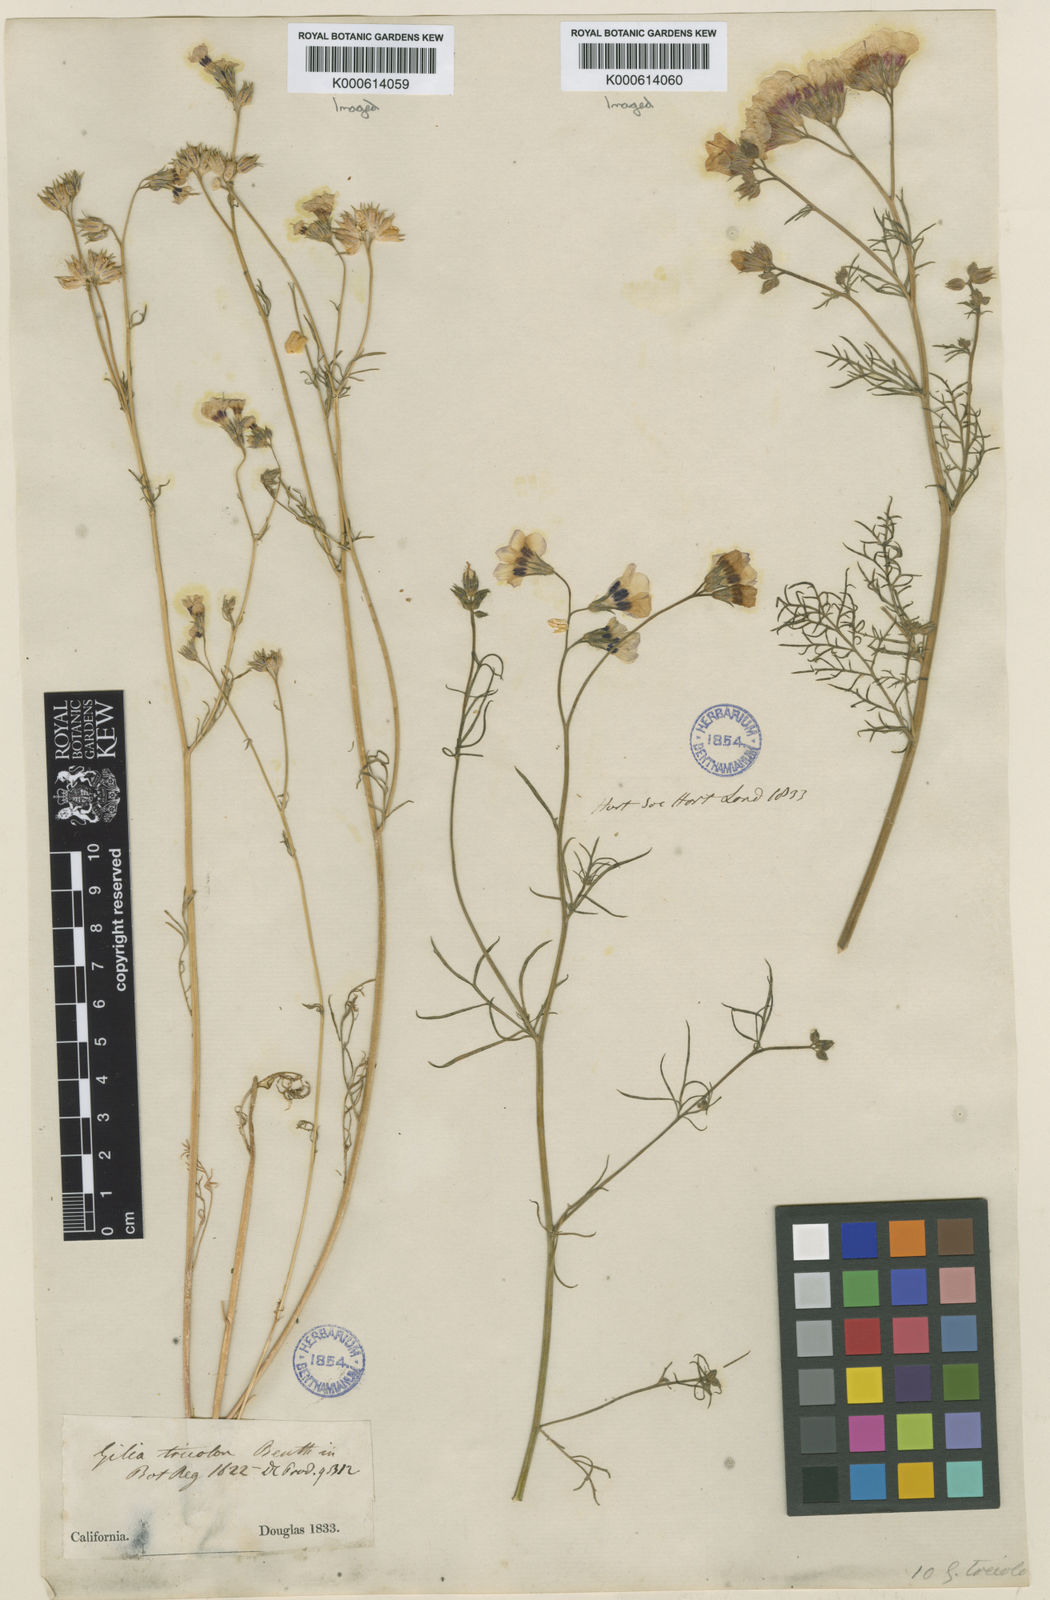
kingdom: Plantae
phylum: Tracheophyta
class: Magnoliopsida
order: Ericales
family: Polemoniaceae
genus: Gilia
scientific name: Gilia tricolor
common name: Bird's-eyes
